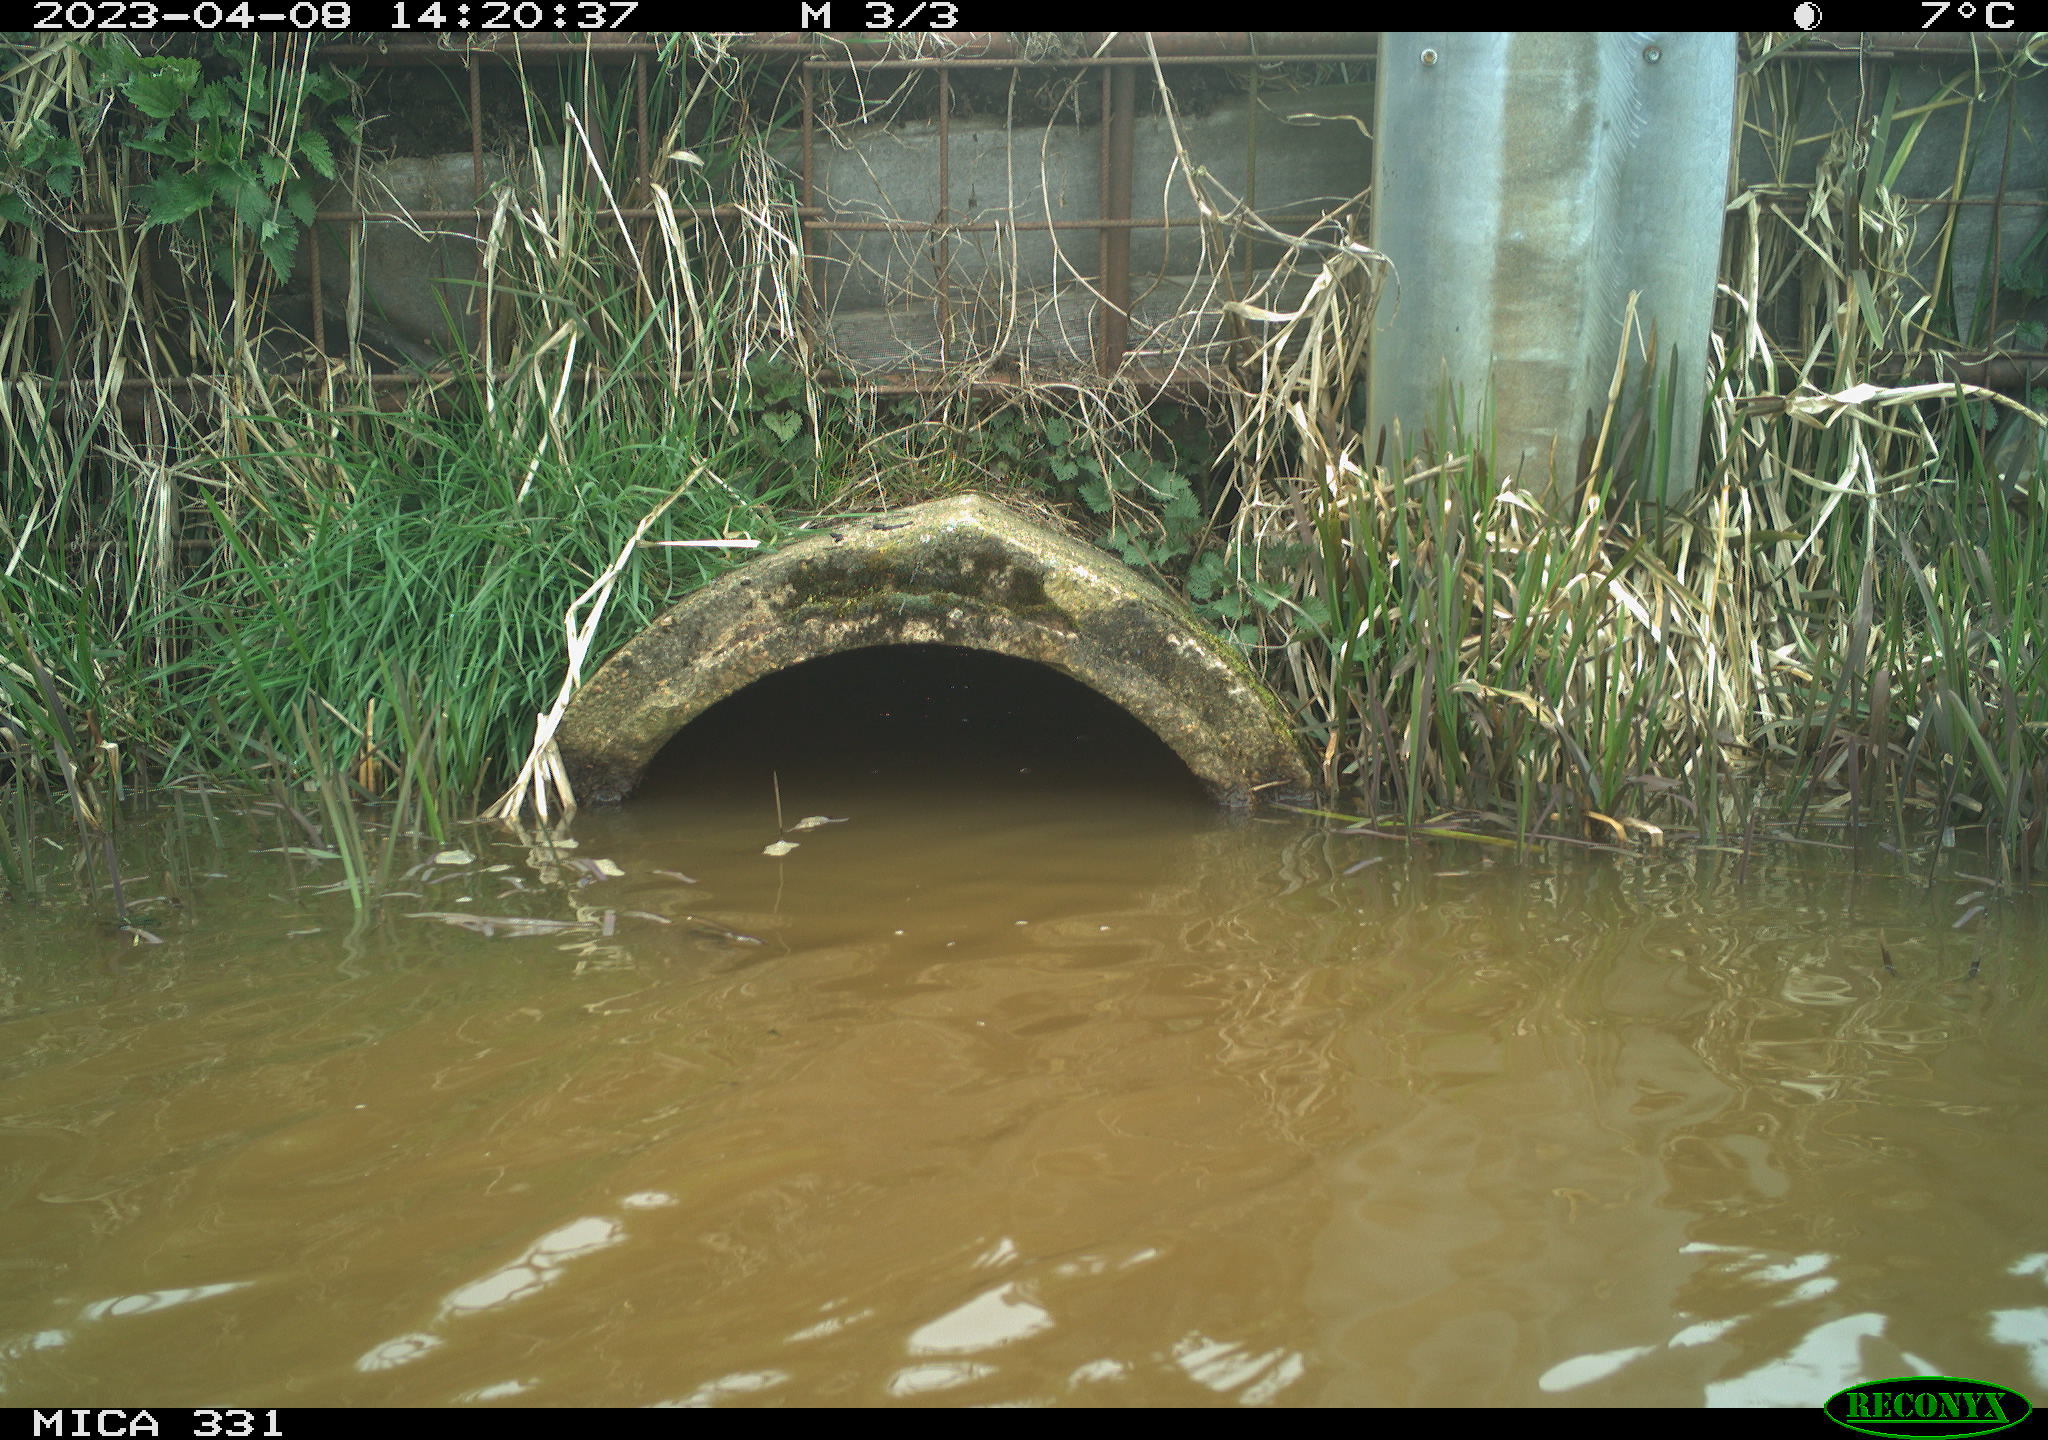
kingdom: Animalia
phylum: Chordata
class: Aves
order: Gruiformes
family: Rallidae
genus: Fulica
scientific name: Fulica atra
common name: Eurasian coot
